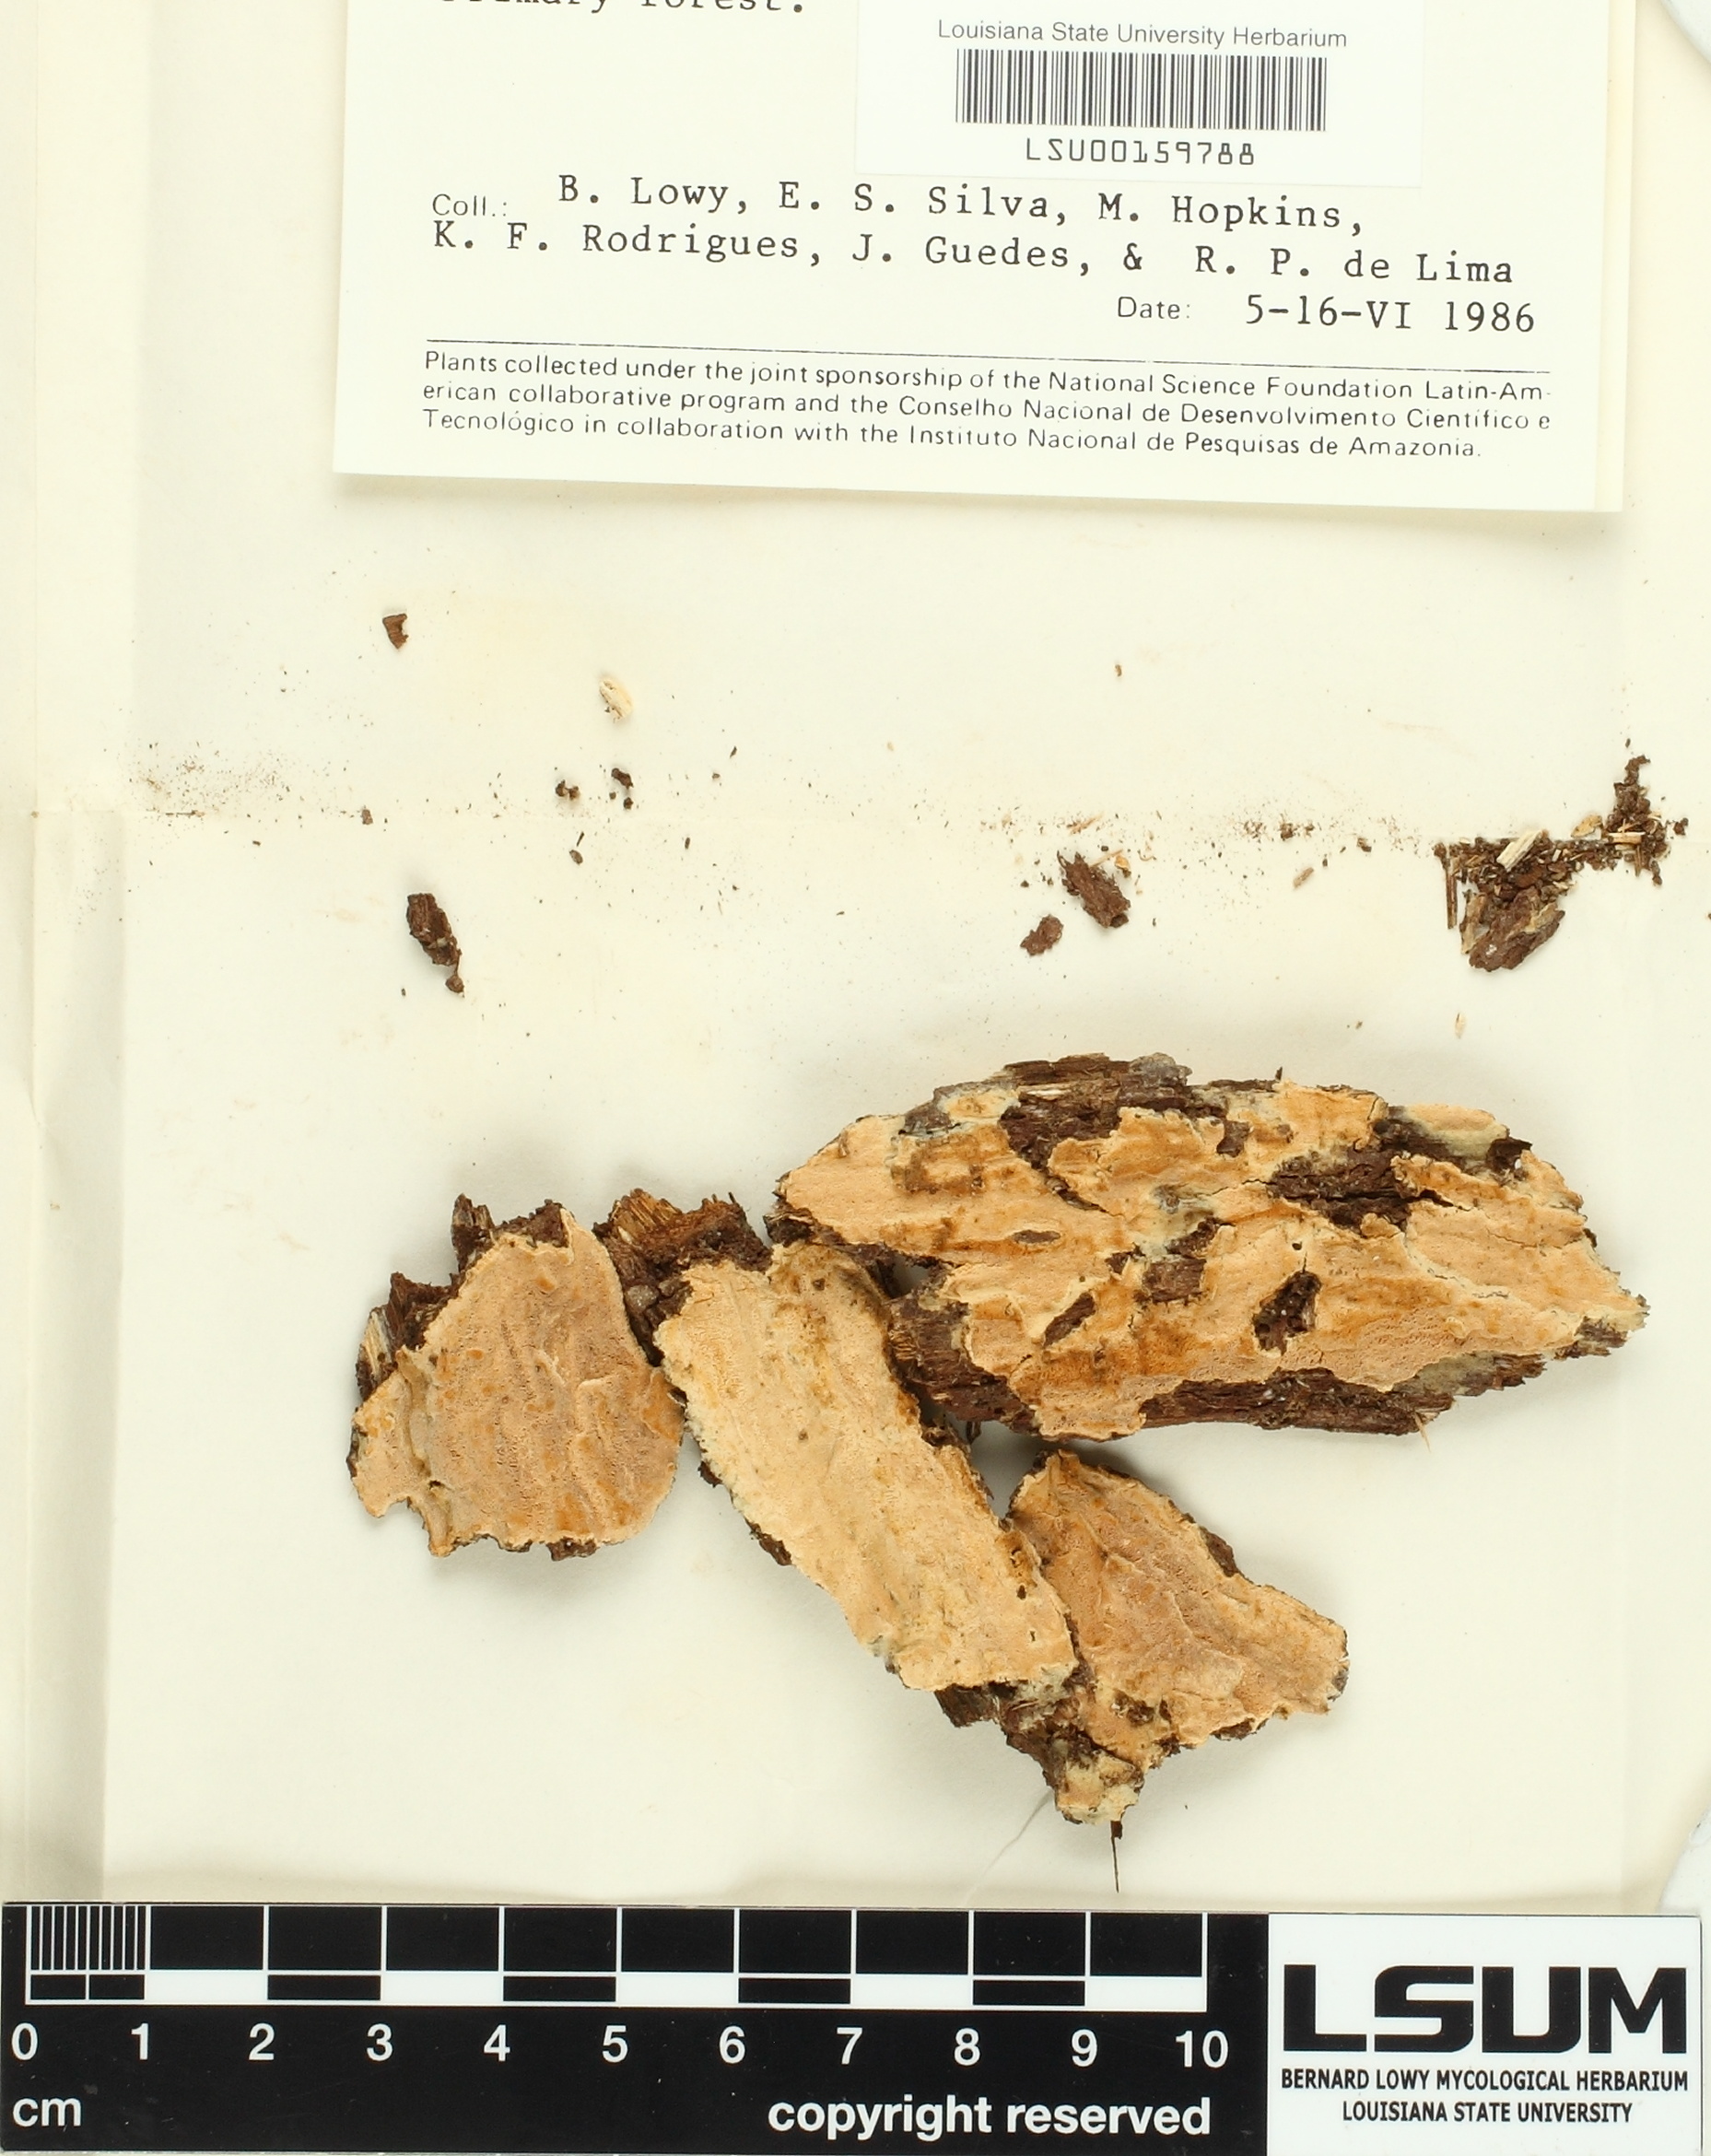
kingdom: Fungi
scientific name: Fungi
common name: Fungi
